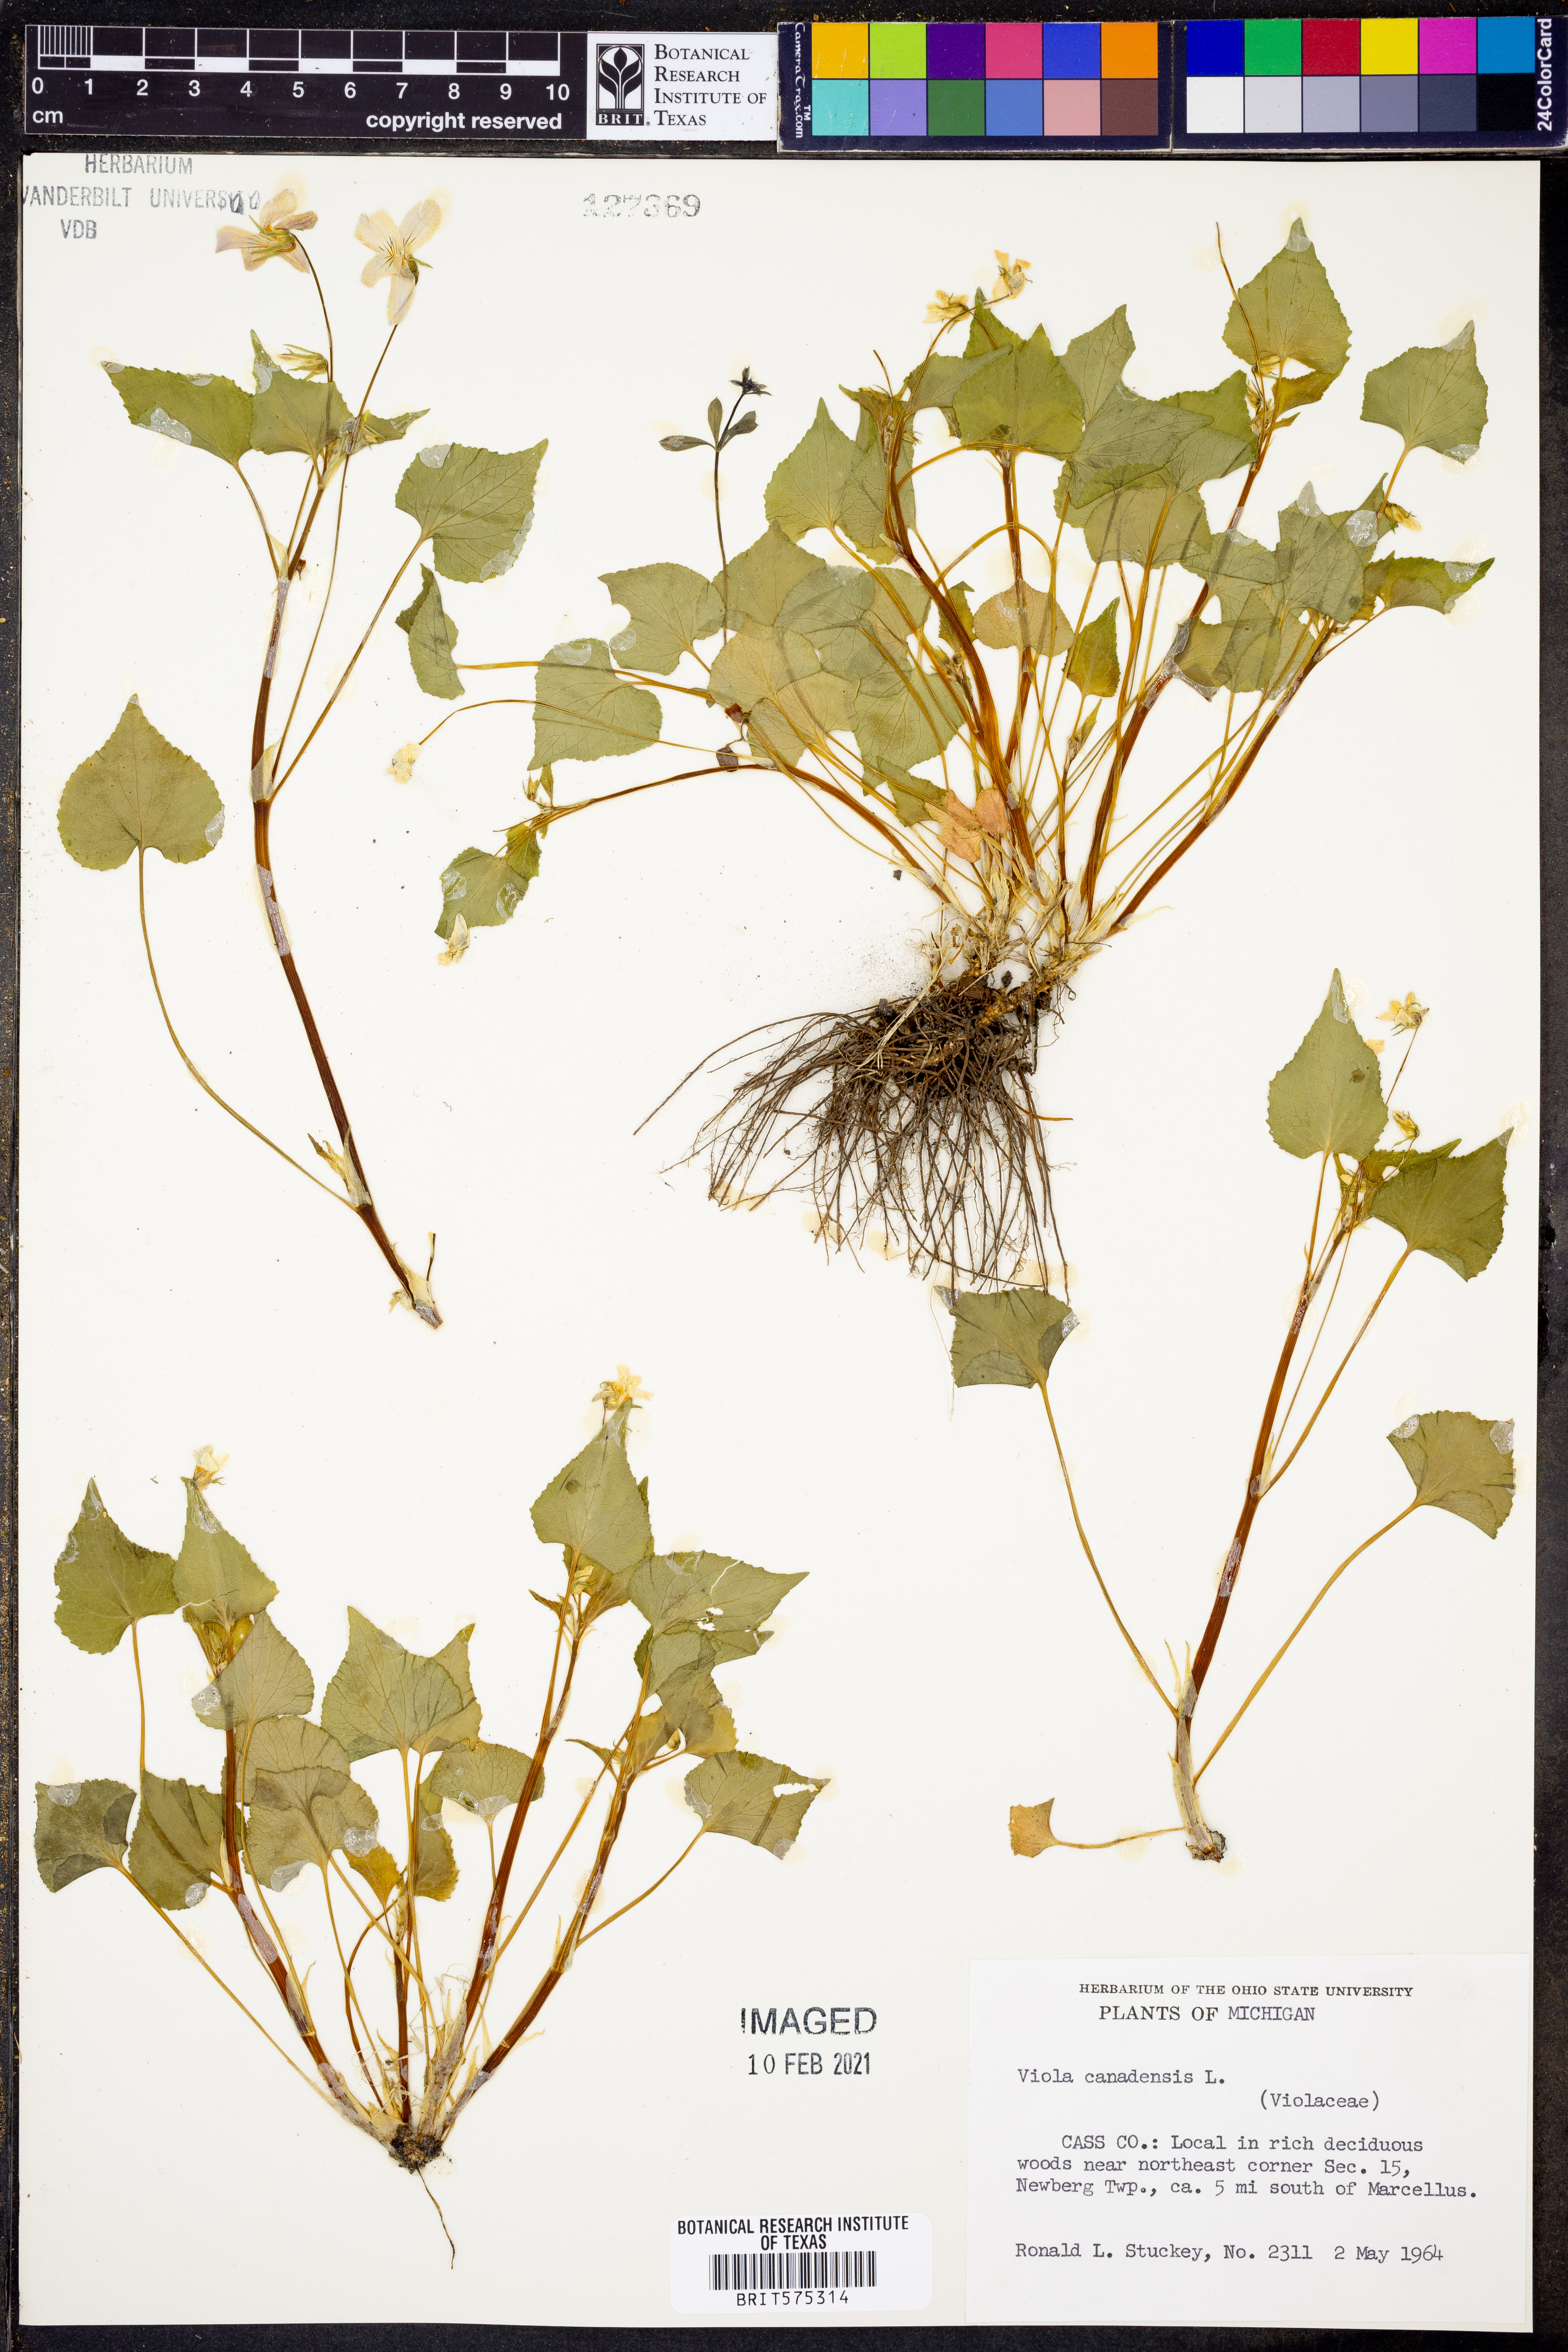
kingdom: Plantae
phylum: Tracheophyta
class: Magnoliopsida
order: Malpighiales
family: Violaceae
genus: Viola
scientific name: Viola canadensis
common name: Canada violet
